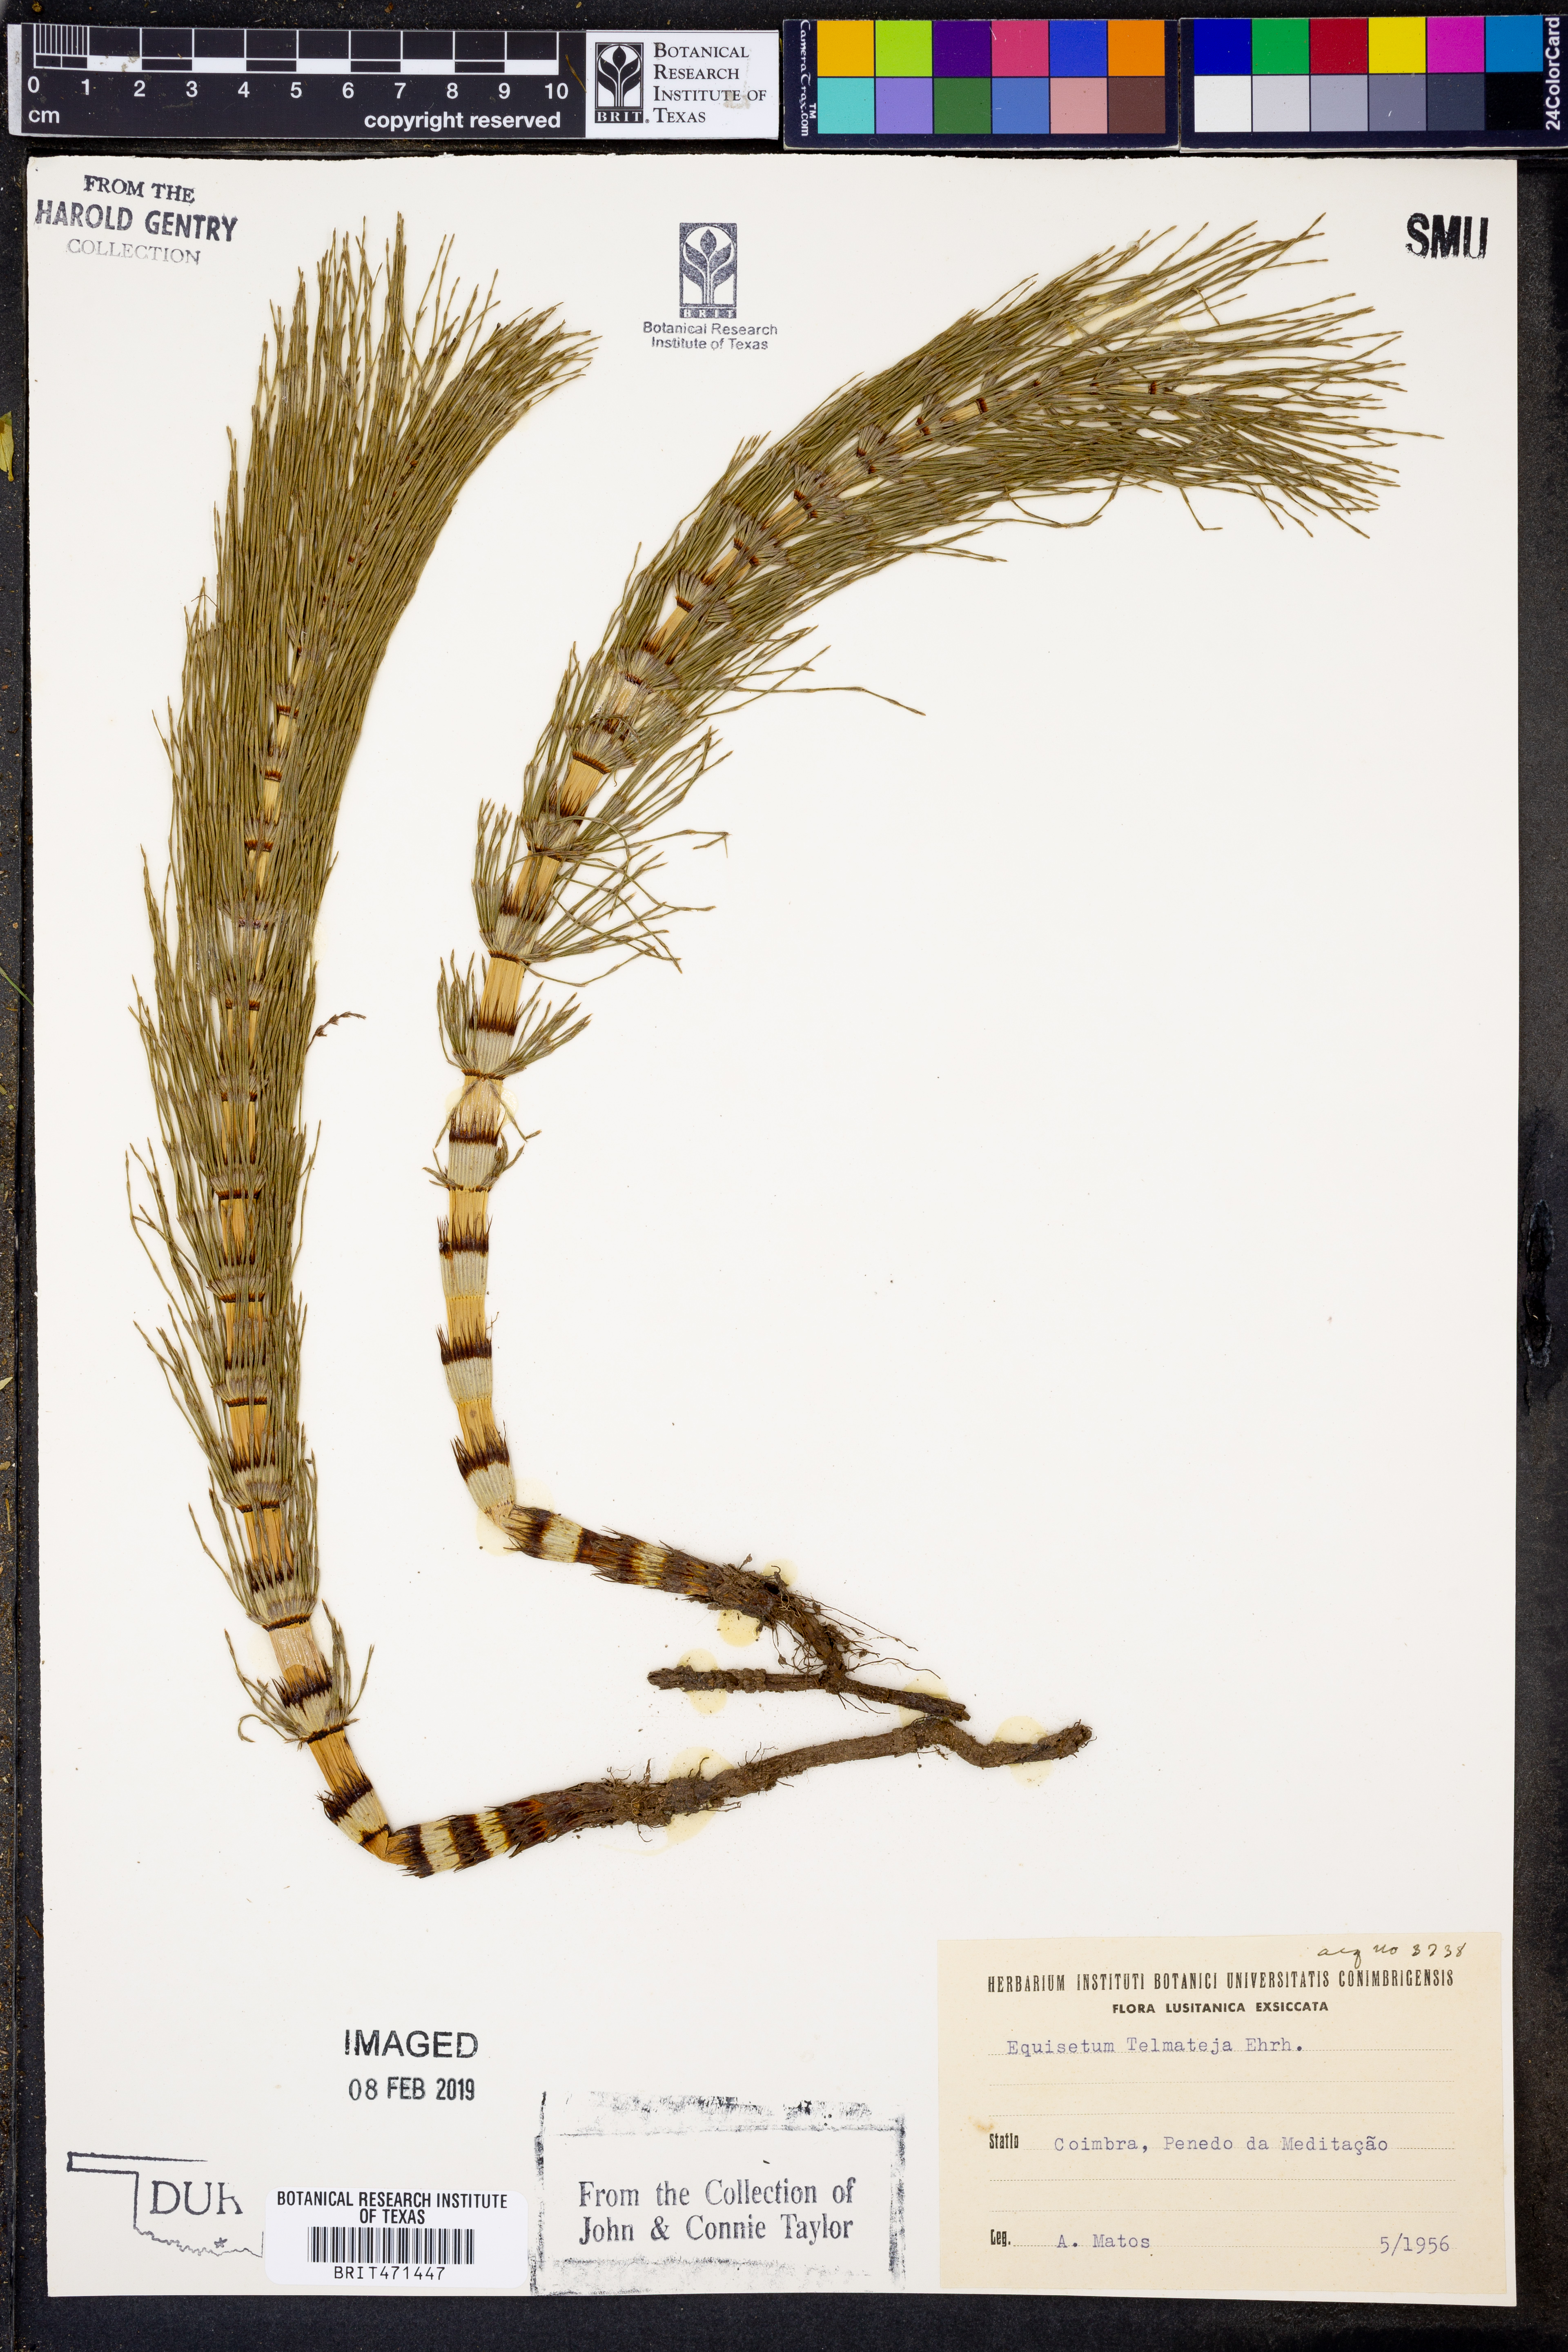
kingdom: Plantae
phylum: Tracheophyta
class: Polypodiopsida
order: Equisetales
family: Equisetaceae
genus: Equisetum
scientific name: Equisetum telmateia
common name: Great horsetail
